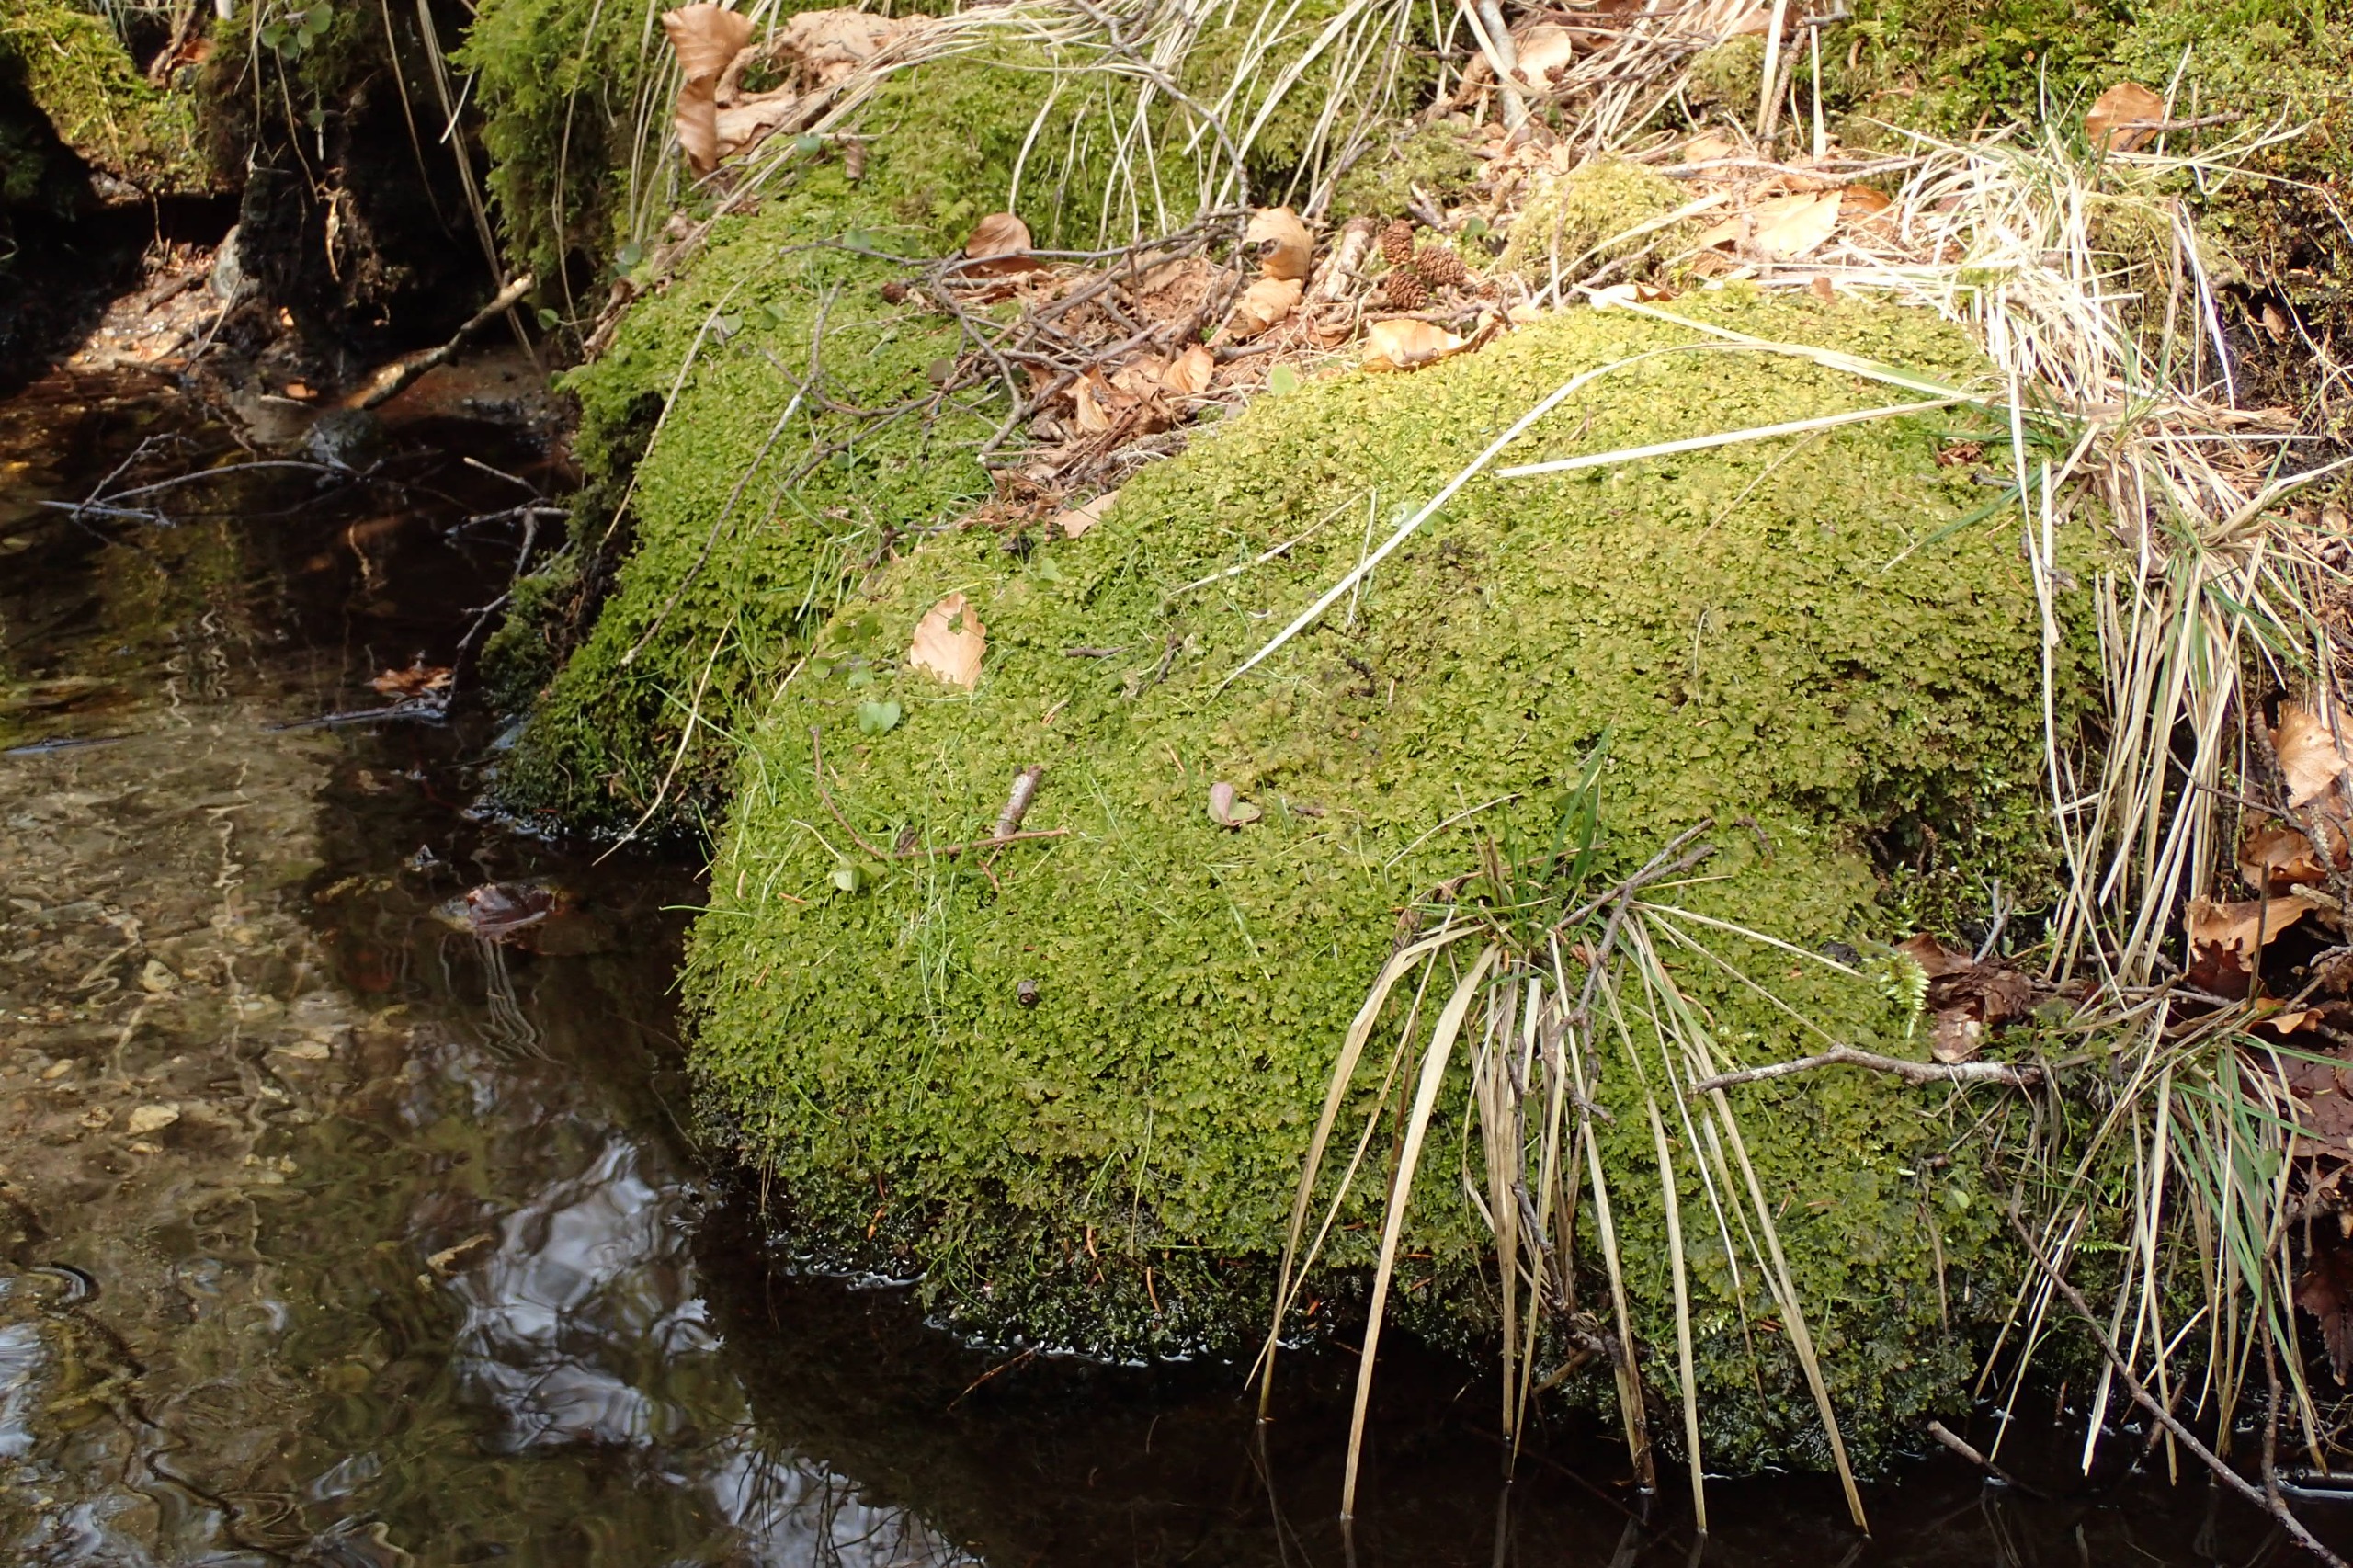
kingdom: Plantae
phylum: Marchantiophyta
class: Jungermanniopsida
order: Jungermanniales
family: Trichocoleaceae
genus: Trichocolea
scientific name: Trichocolea tomentella
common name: Bleg dunmos
